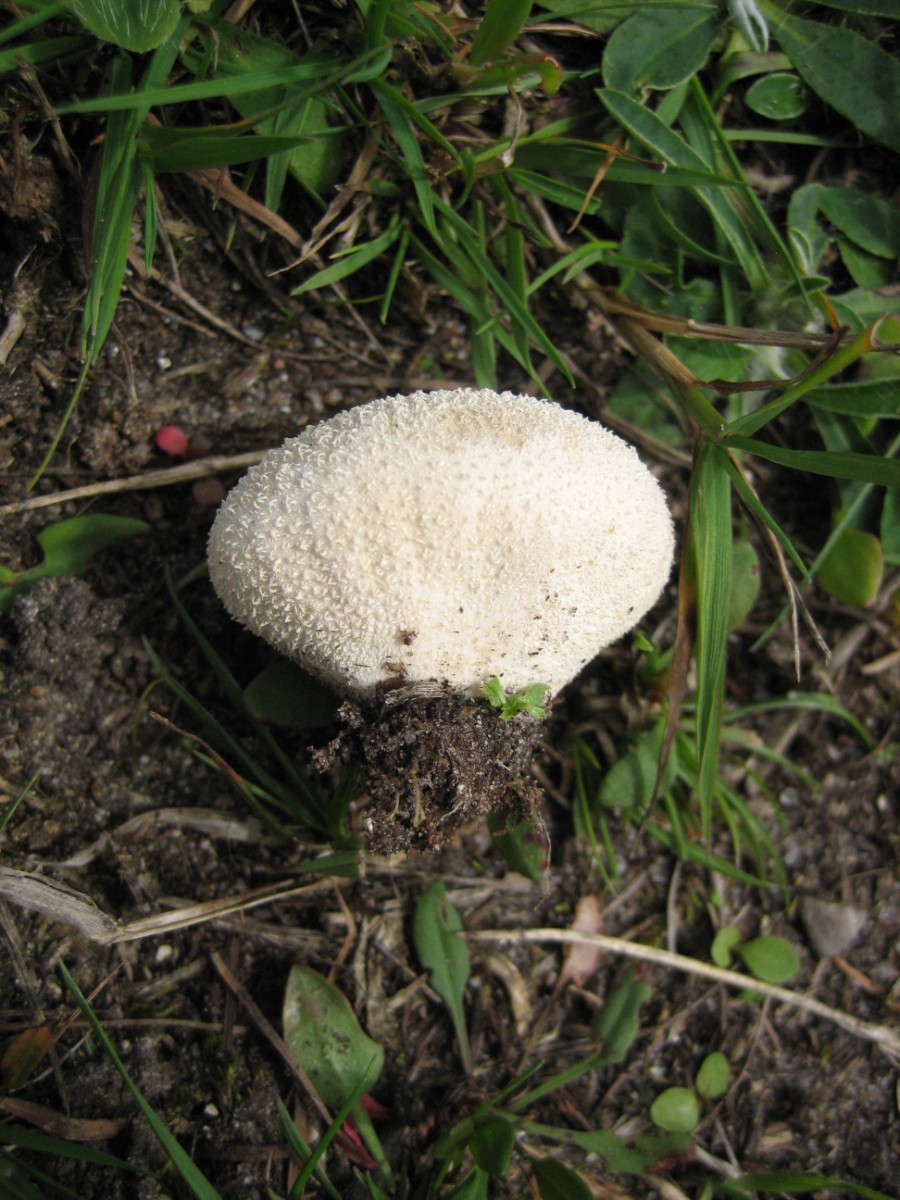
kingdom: Fungi
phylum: Basidiomycota
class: Agaricomycetes
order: Agaricales
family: Lycoperdaceae
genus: Lycoperdon
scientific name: Lycoperdon pratense
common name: flad støvbold
